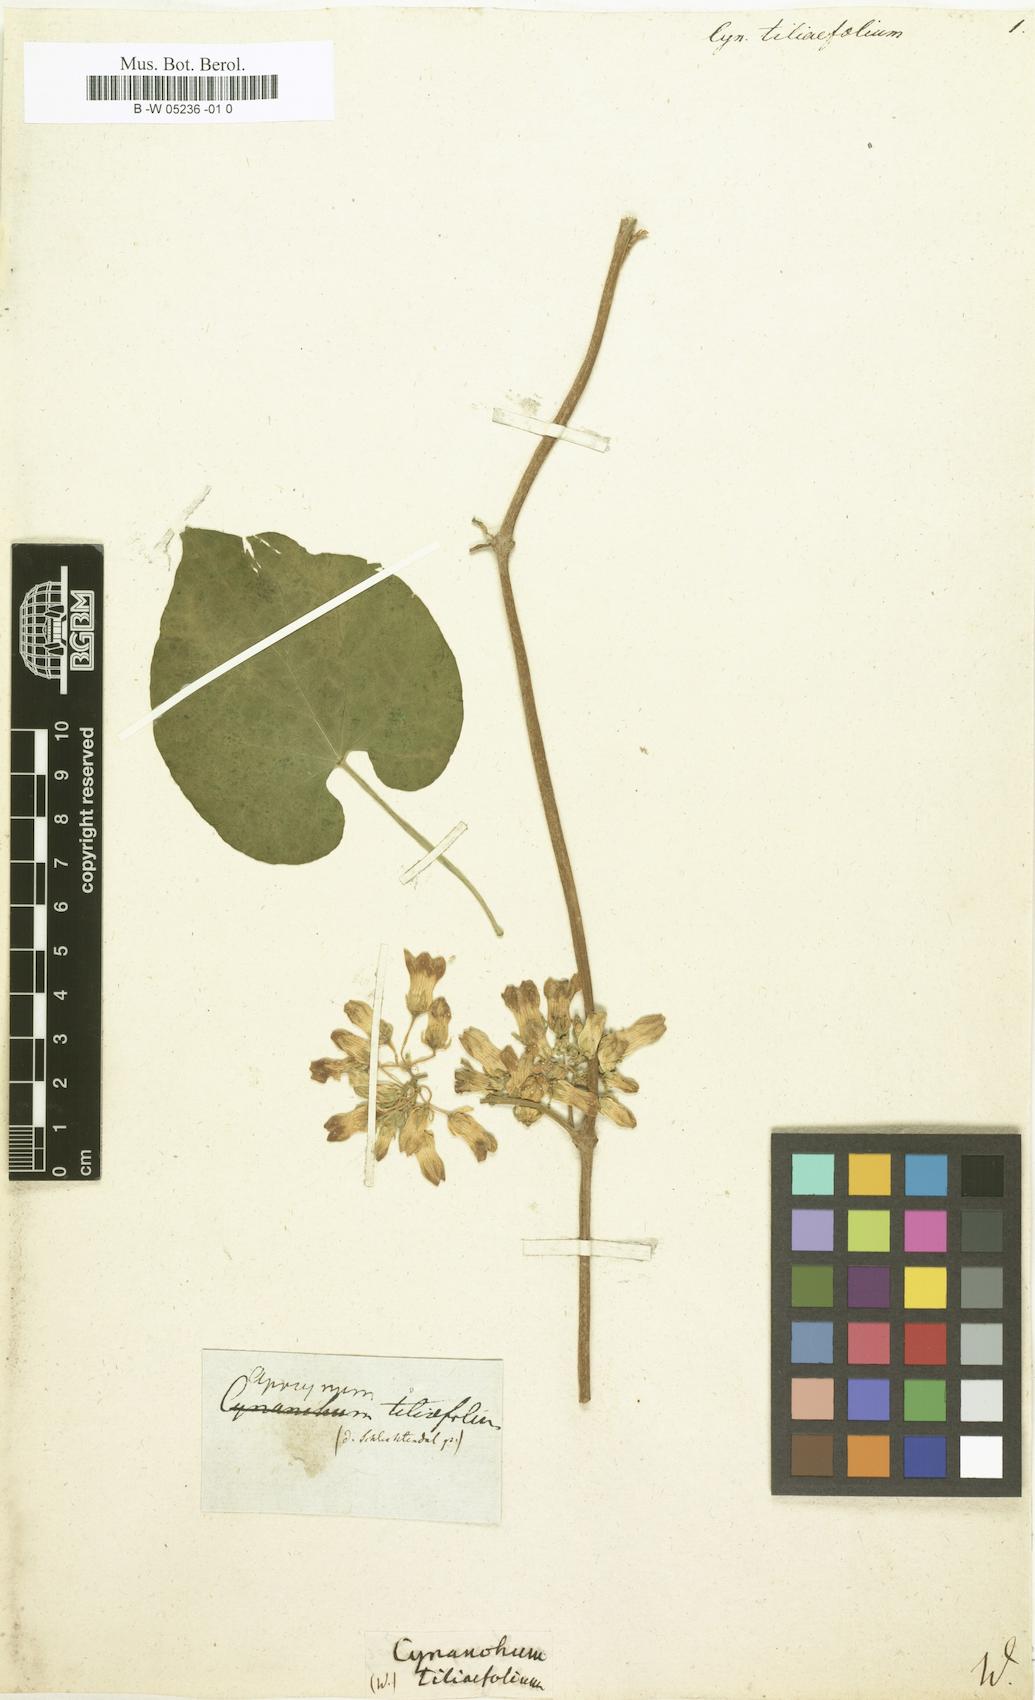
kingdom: Plantae
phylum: Tracheophyta
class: Magnoliopsida
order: Gentianales
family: Apocynaceae
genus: Cynanchum
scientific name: Cynanchum
